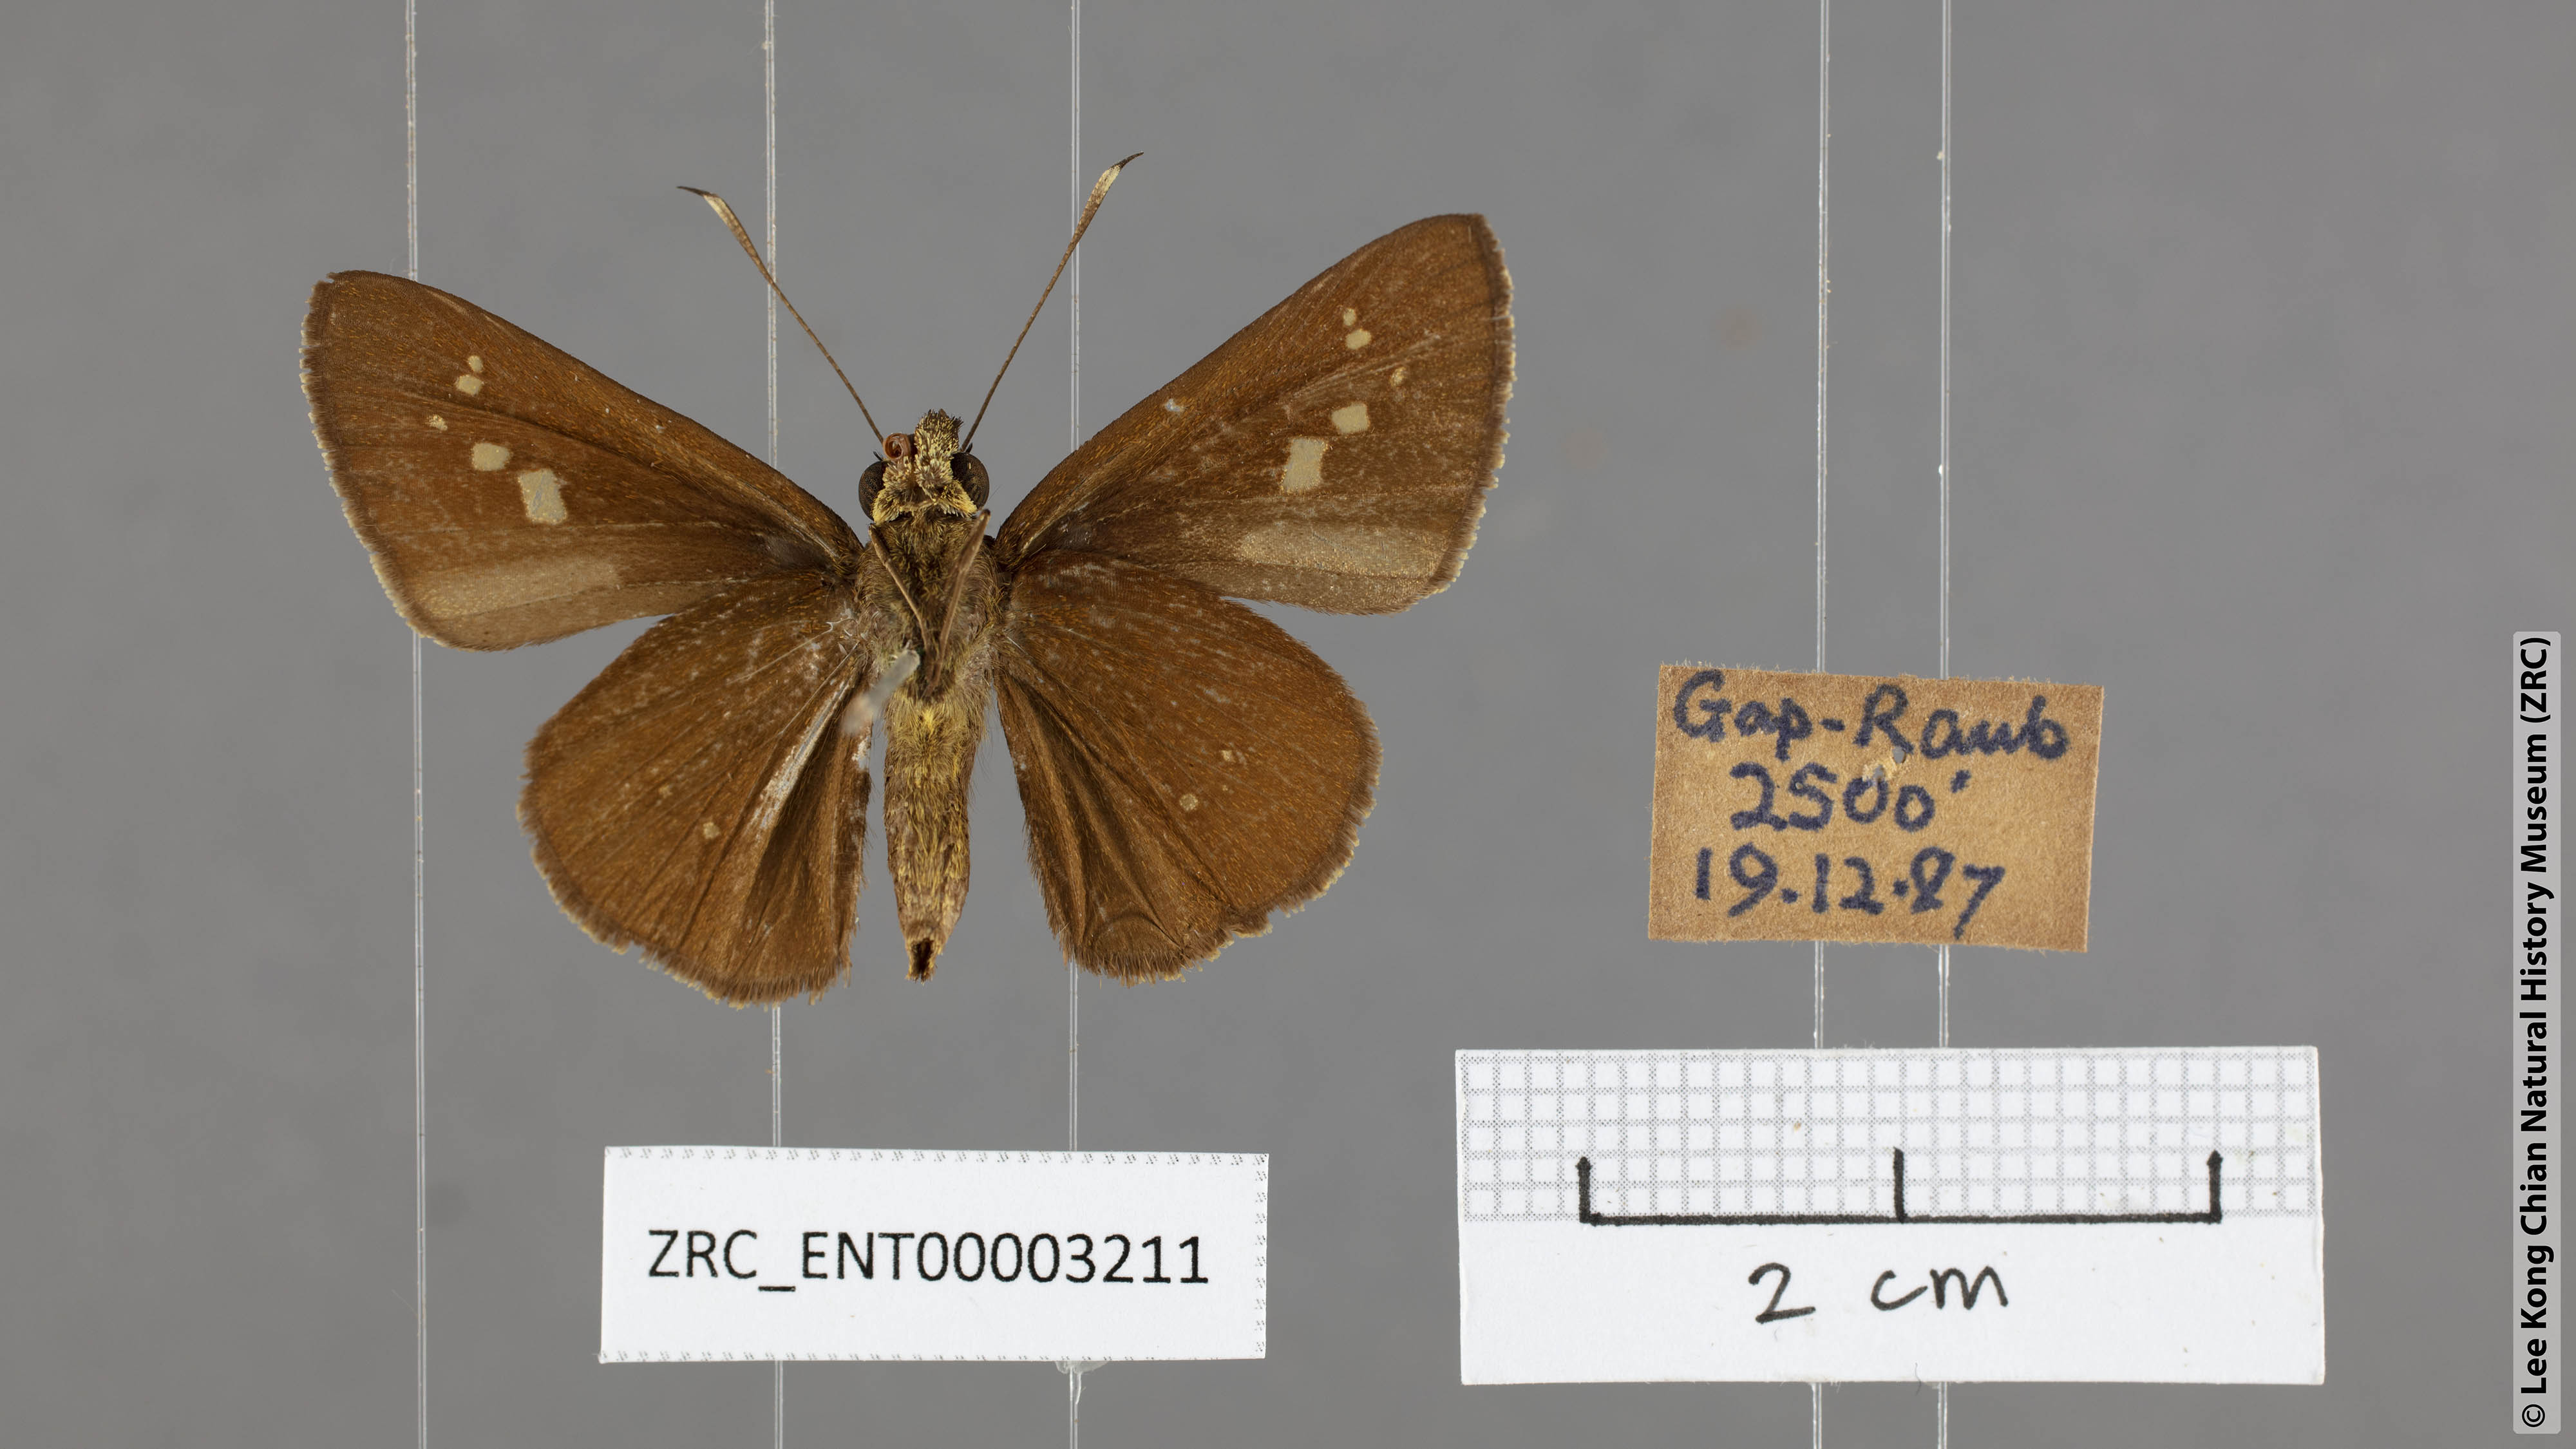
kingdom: Animalia
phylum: Arthropoda
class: Insecta
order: Lepidoptera
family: Hesperiidae
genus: Ge
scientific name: Ge
